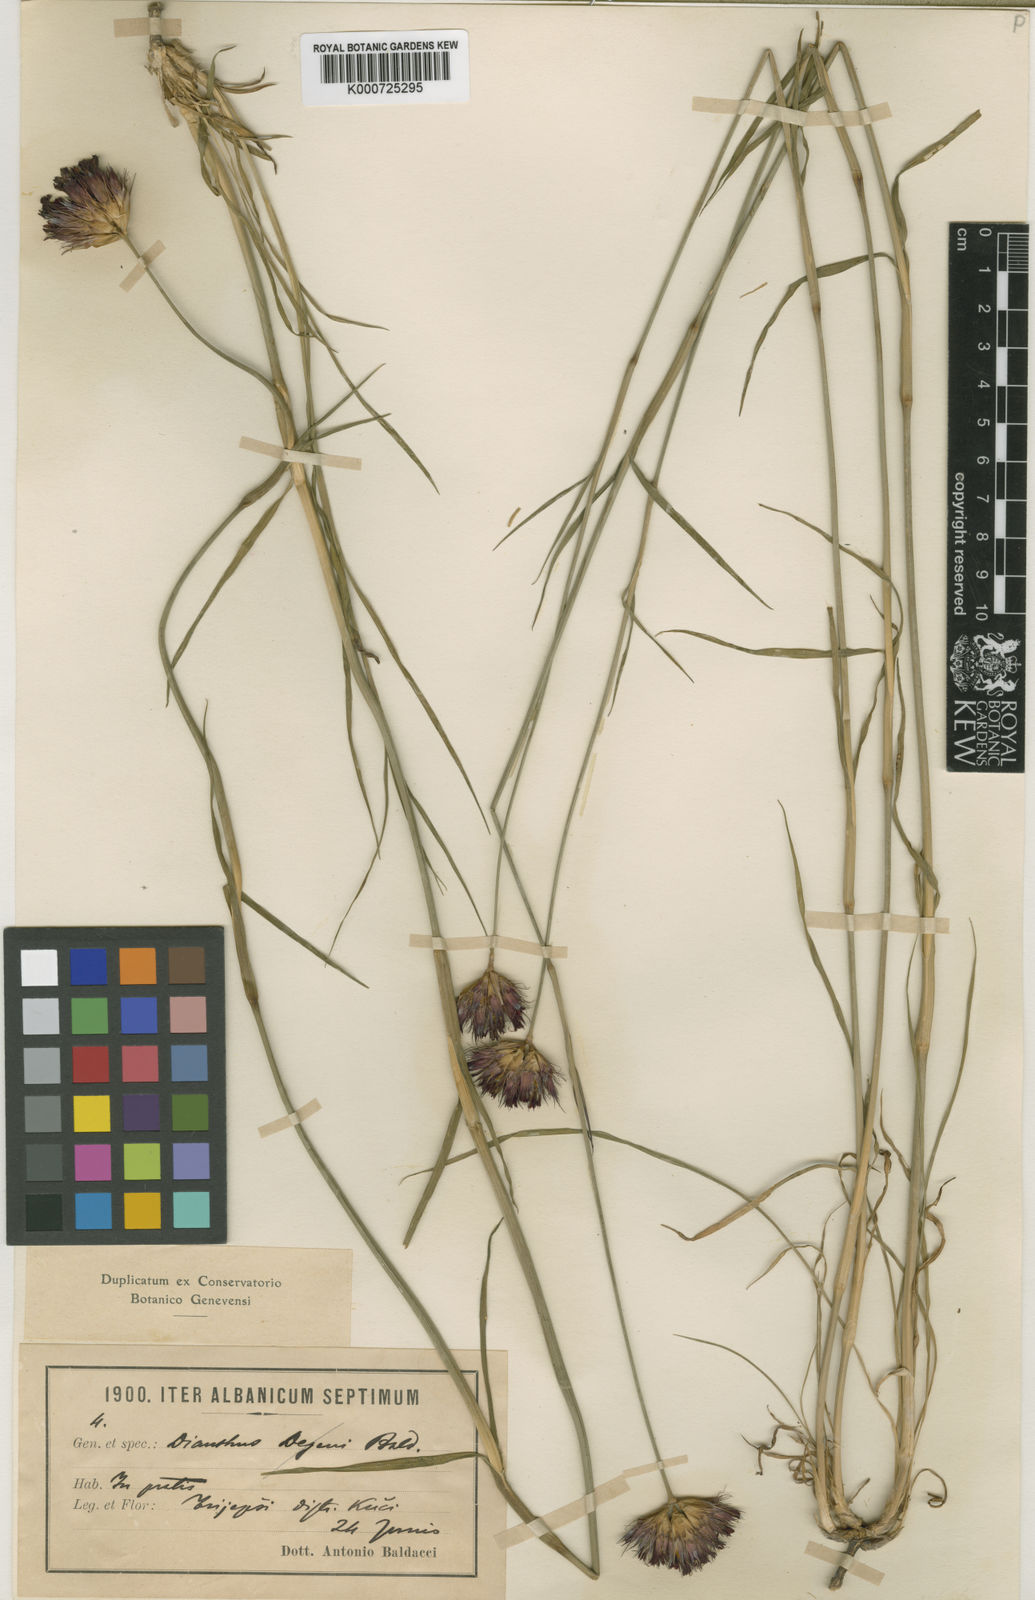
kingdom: Plantae
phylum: Tracheophyta
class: Magnoliopsida
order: Caryophyllales
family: Caryophyllaceae
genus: Dianthus
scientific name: Dianthus cruentus
